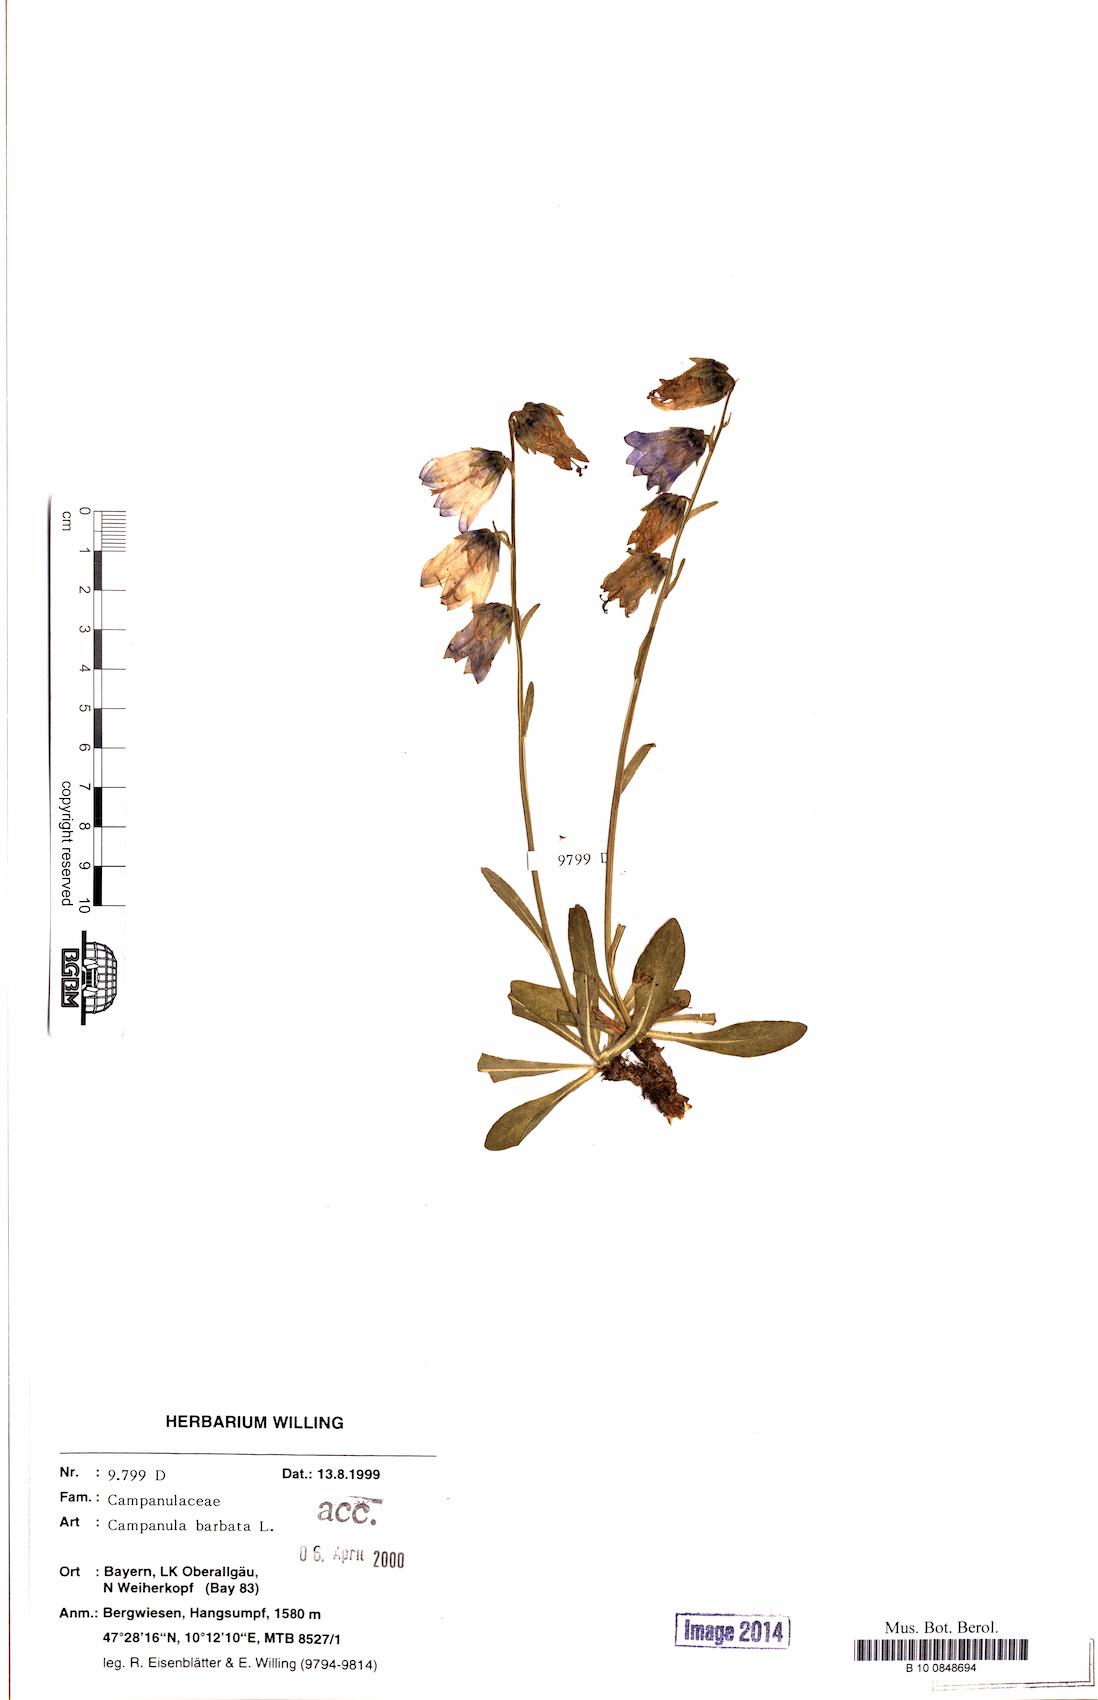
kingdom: Plantae
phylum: Tracheophyta
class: Magnoliopsida
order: Asterales
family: Campanulaceae
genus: Campanula
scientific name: Campanula barbata
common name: Bearded bellflower
